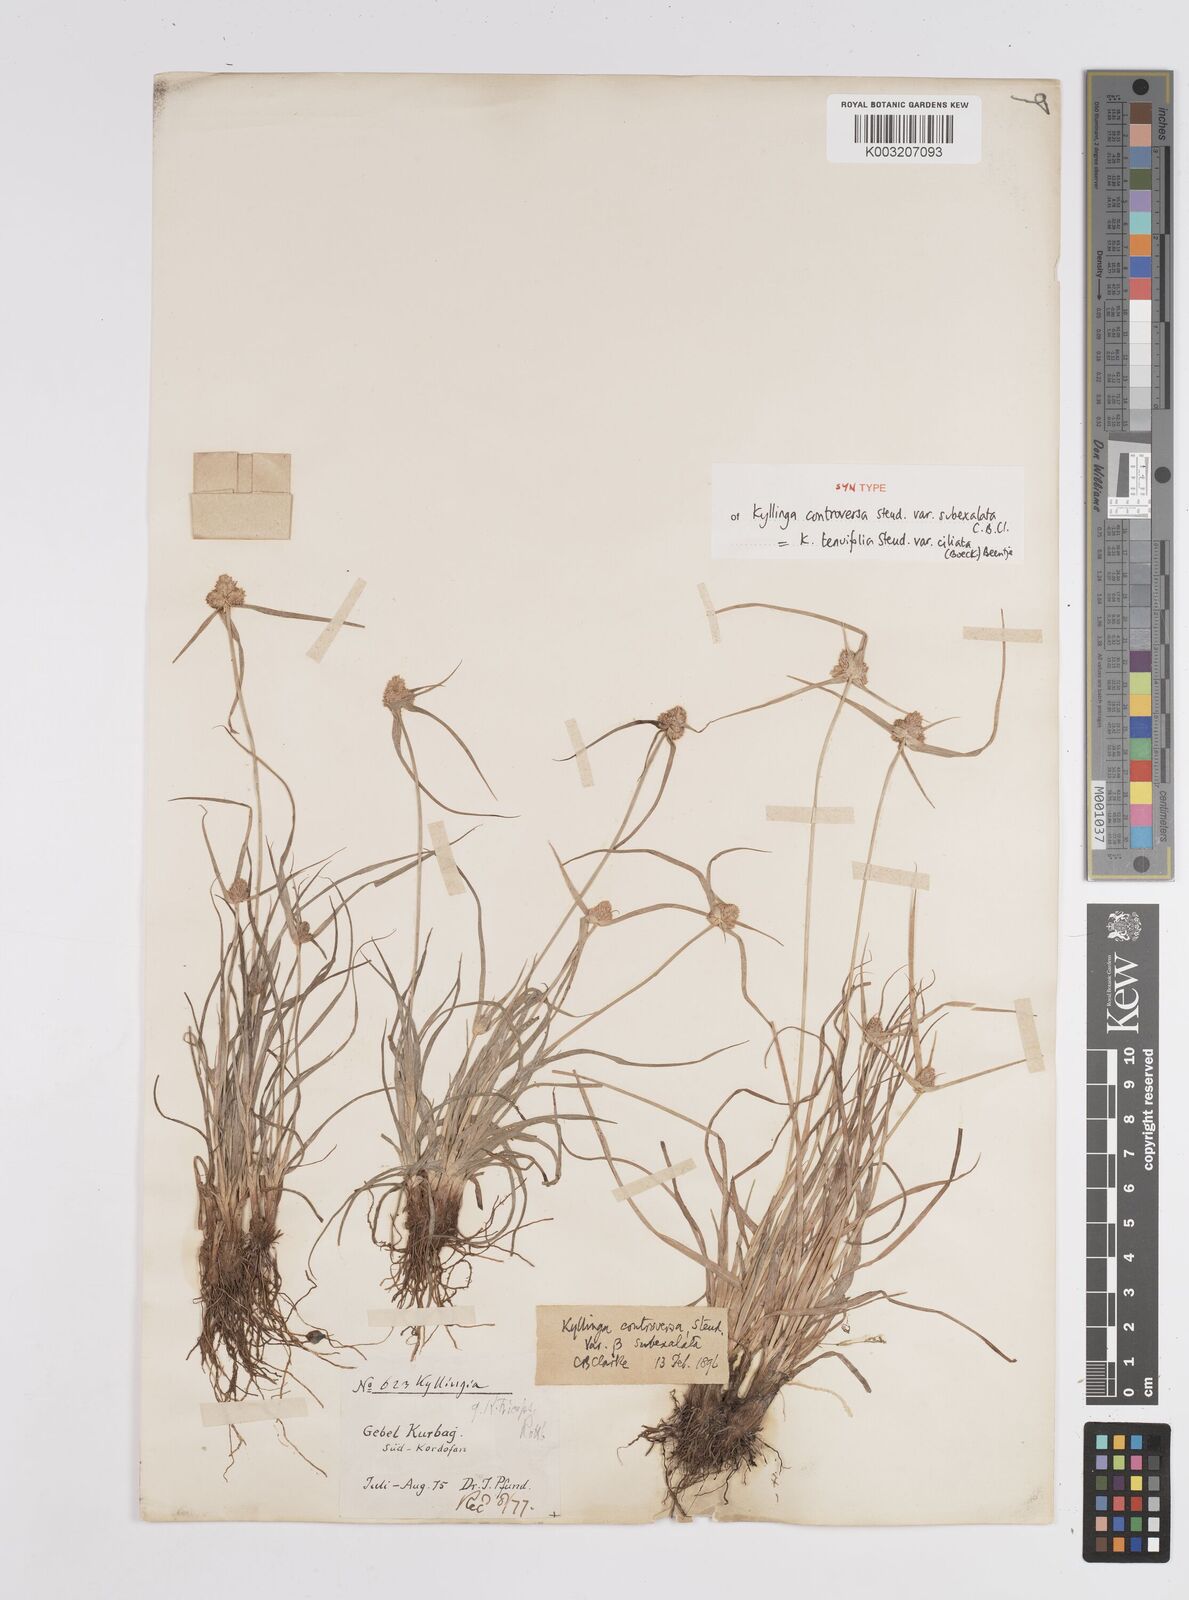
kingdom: Plantae
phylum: Tracheophyta
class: Liliopsida
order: Poales
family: Cyperaceae
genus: Cyperus
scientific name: Cyperus
